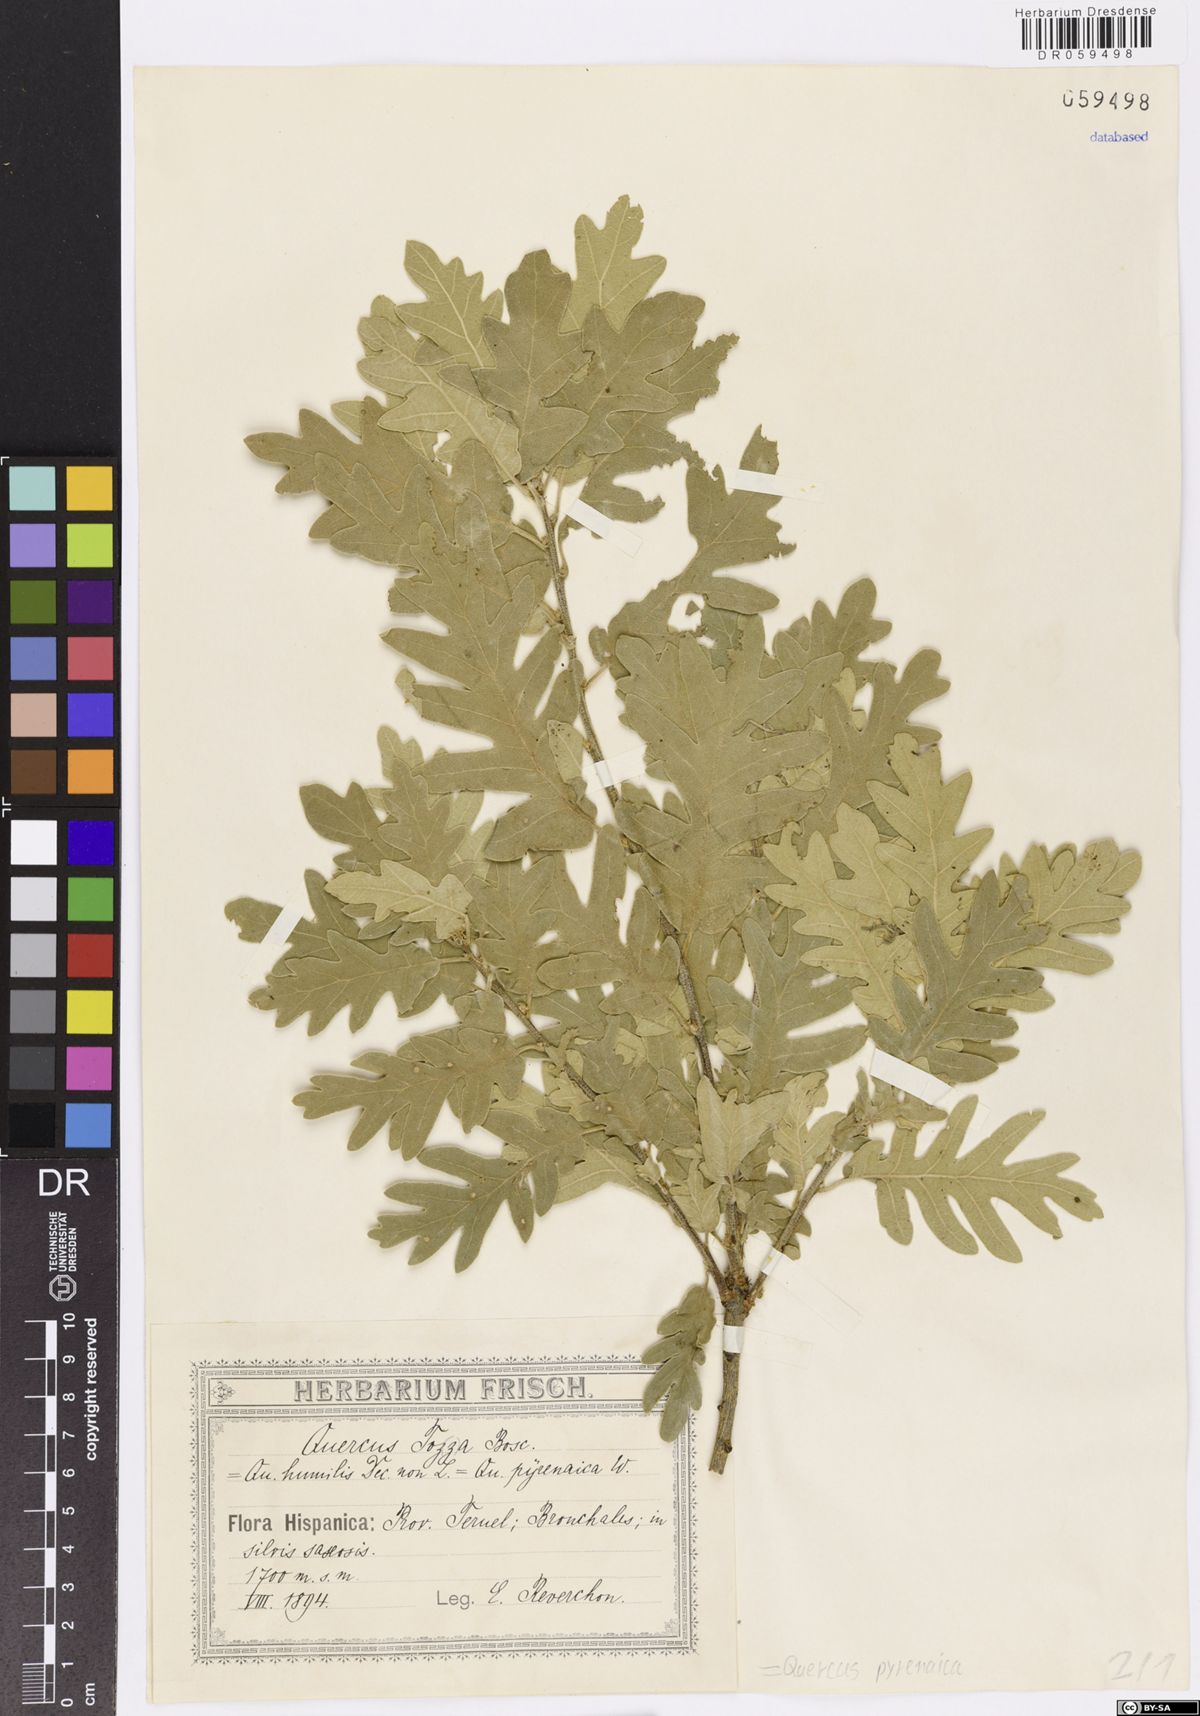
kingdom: Plantae
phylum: Tracheophyta
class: Magnoliopsida
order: Fagales
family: Fagaceae
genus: Quercus
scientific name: Quercus pyrenaica
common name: Pyrenean oak
